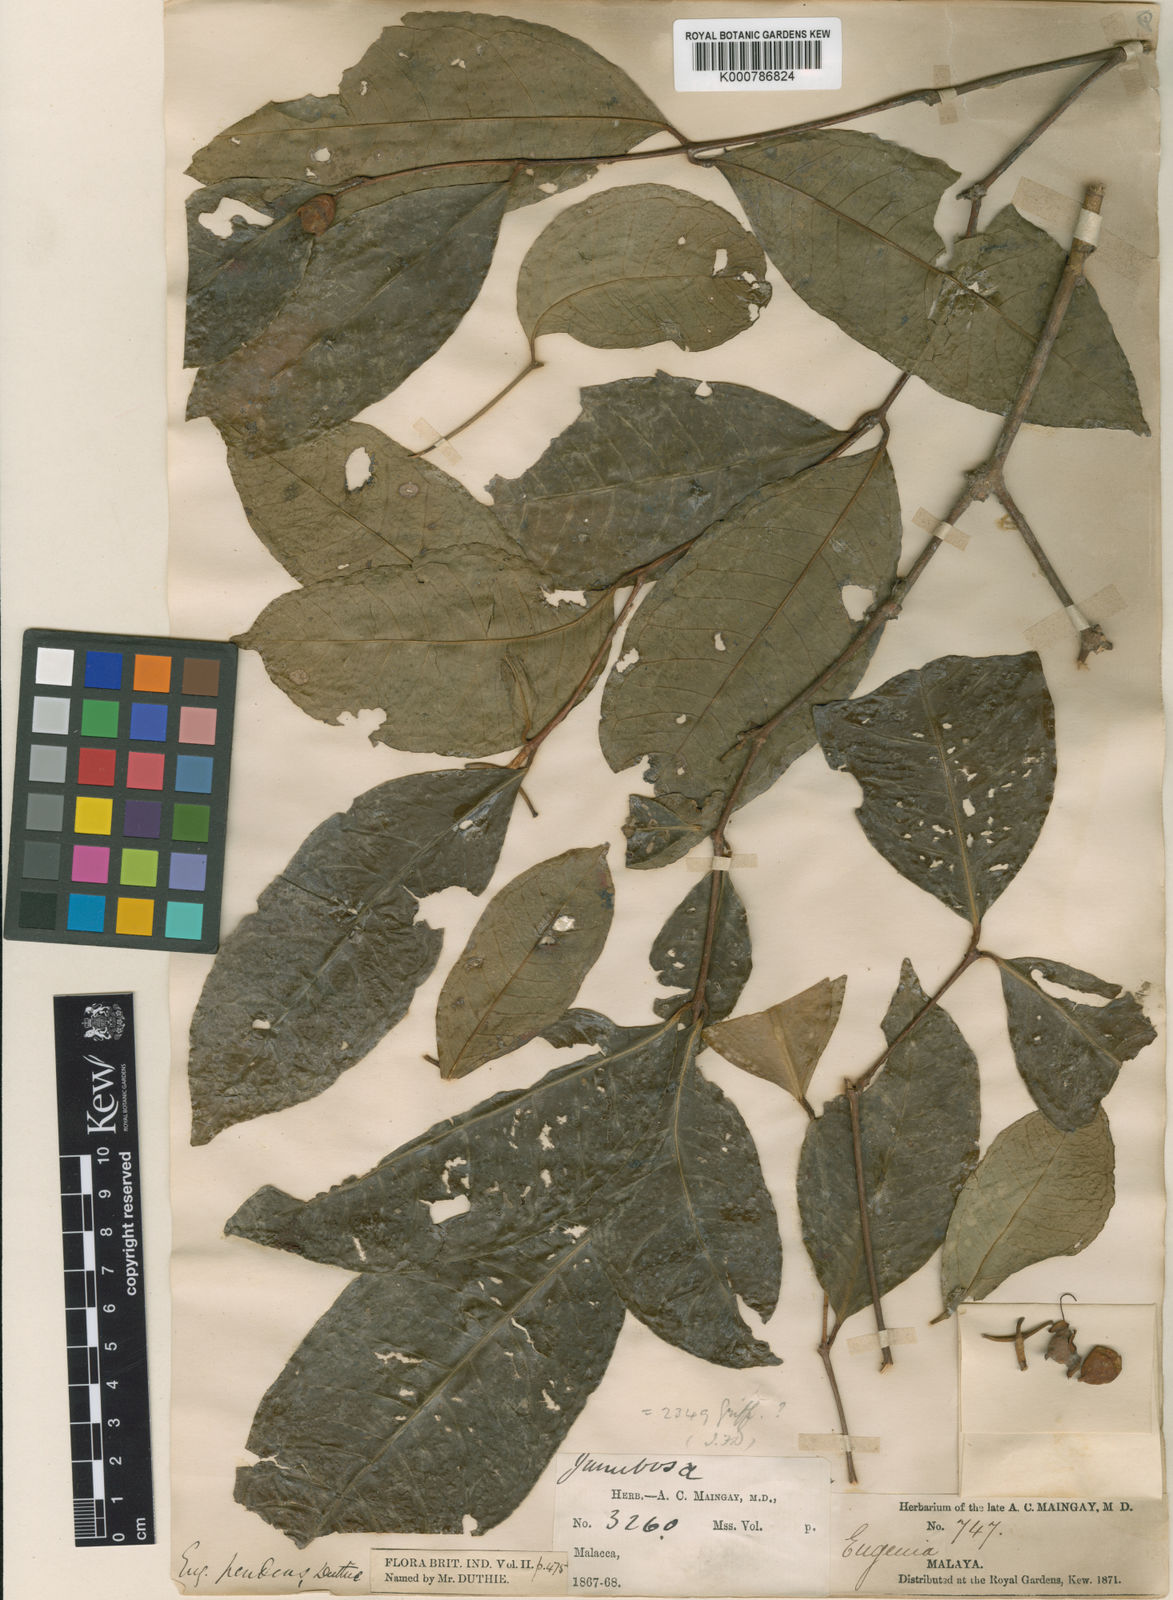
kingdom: Plantae
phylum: Tracheophyta
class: Magnoliopsida
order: Myrtales
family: Myrtaceae
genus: Syzygium
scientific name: Syzygium tiumanense
